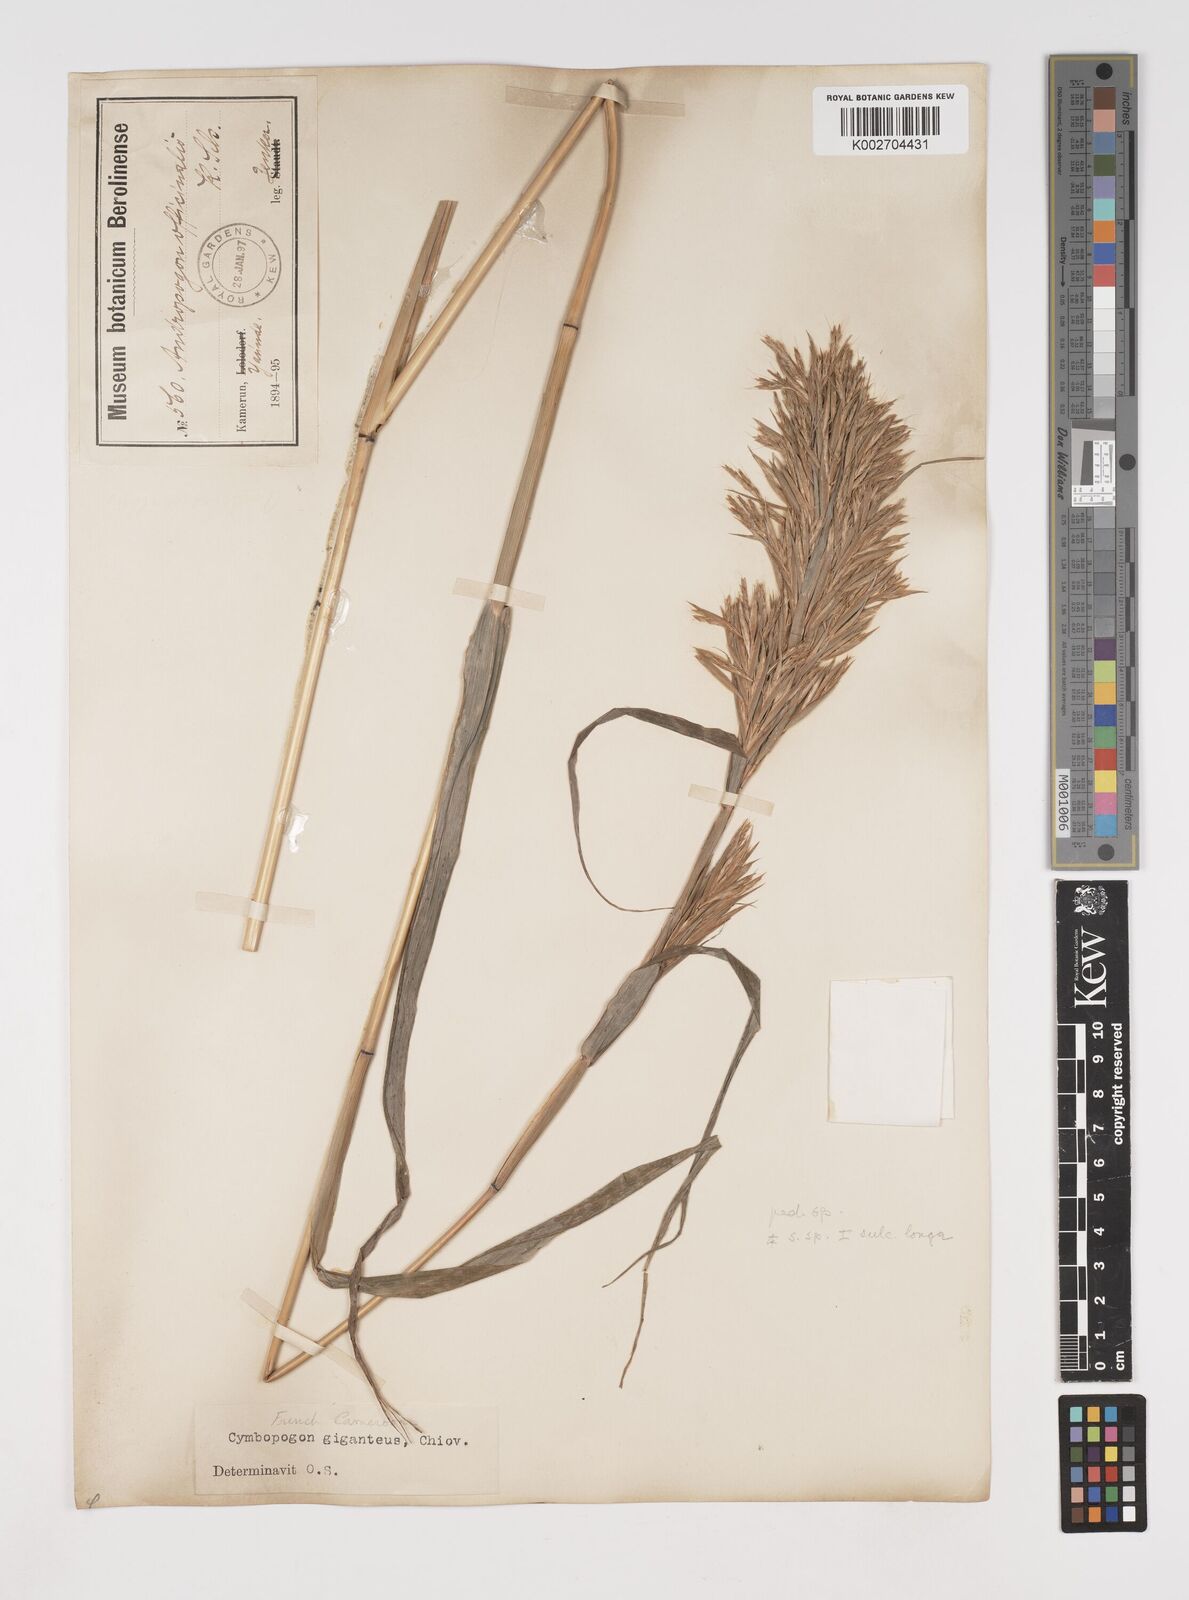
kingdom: Plantae
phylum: Tracheophyta
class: Liliopsida
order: Poales
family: Poaceae
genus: Cymbopogon
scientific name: Cymbopogon densiflorus
